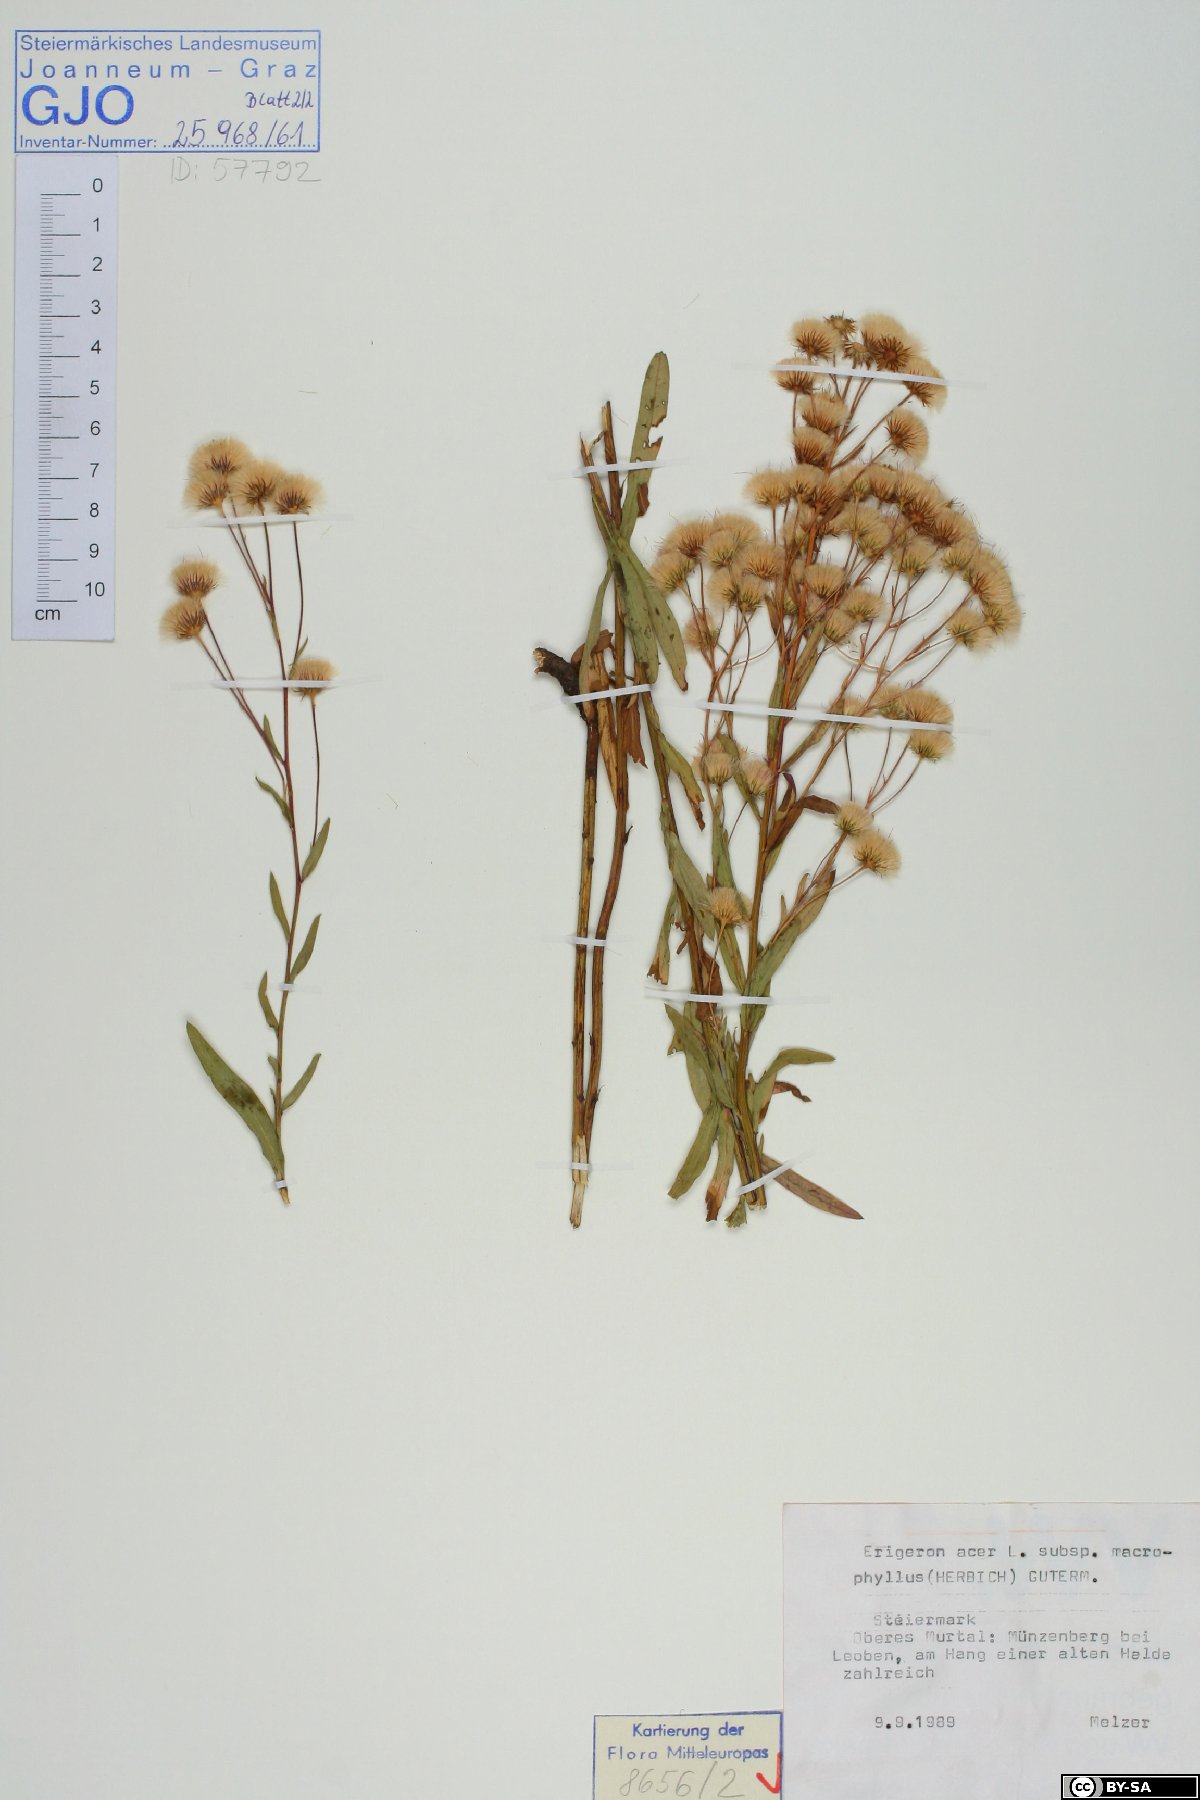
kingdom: Plantae
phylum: Tracheophyta
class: Magnoliopsida
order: Asterales
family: Asteraceae
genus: Erigeron
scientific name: Erigeron macrophyllus
